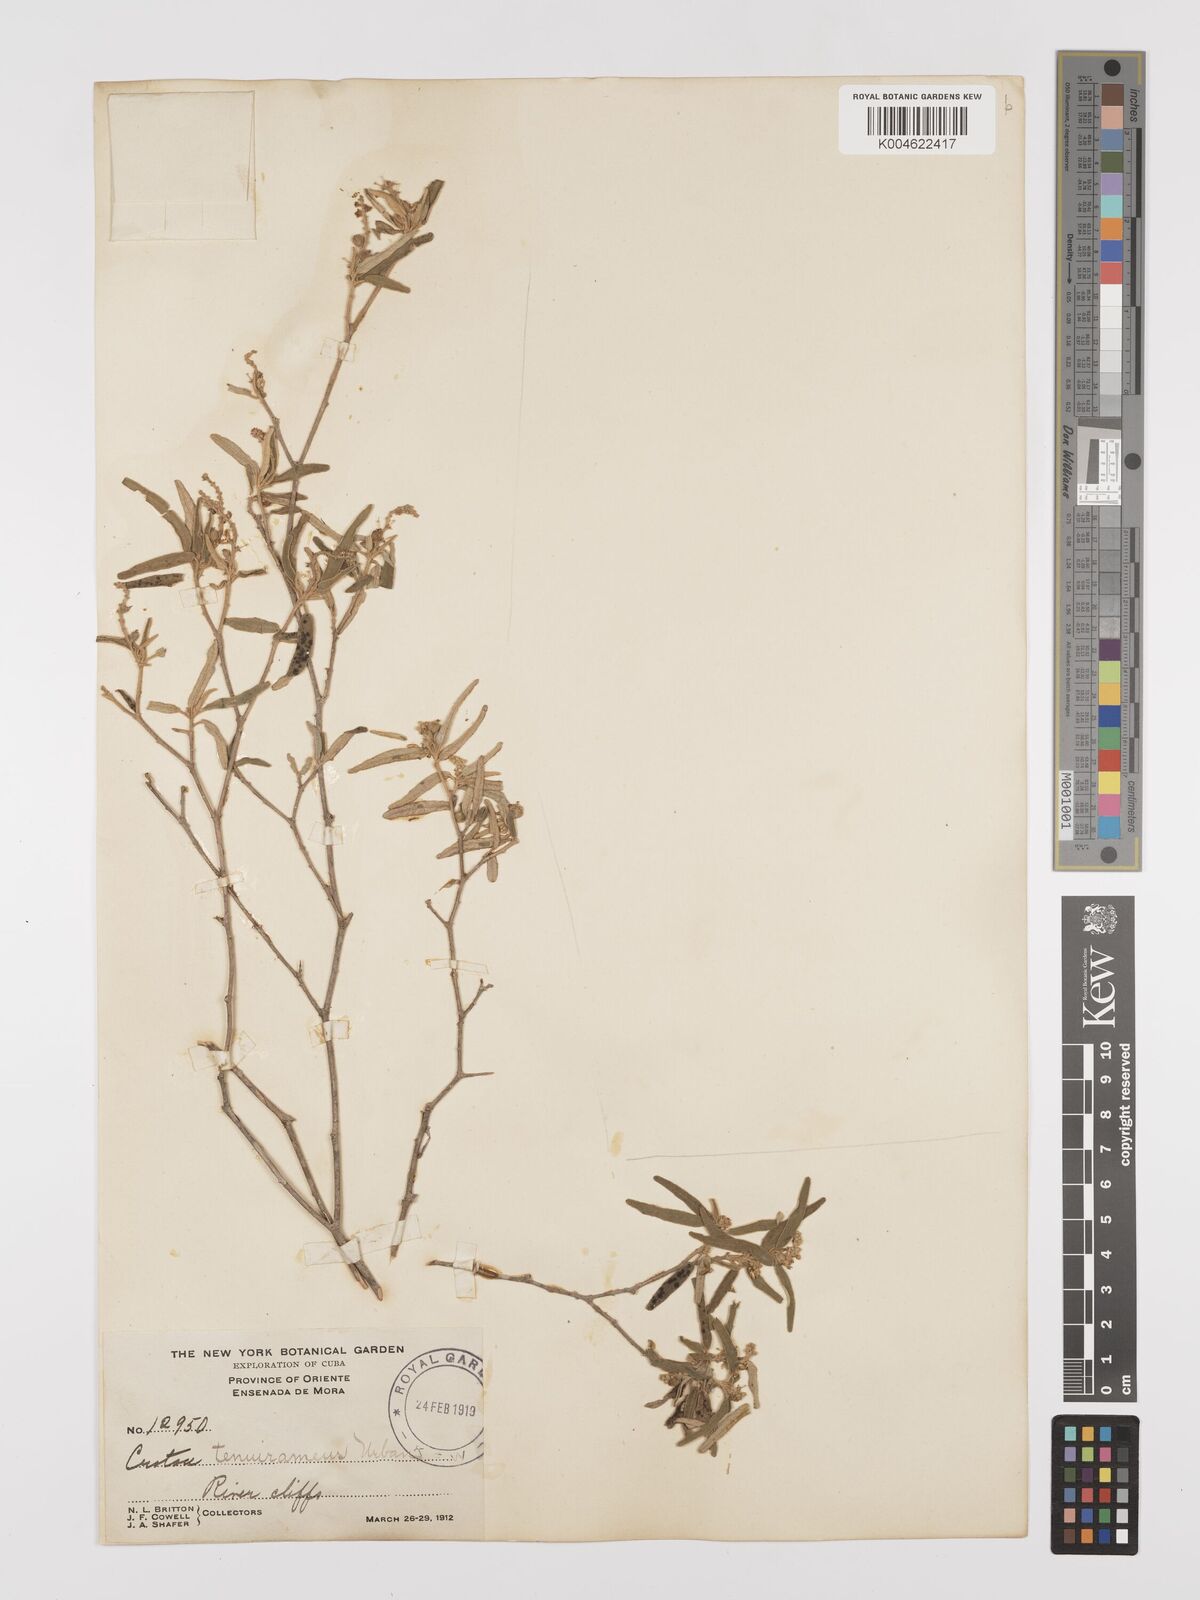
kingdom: Plantae
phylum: Tracheophyta
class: Magnoliopsida
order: Malpighiales
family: Euphorbiaceae
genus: Croton
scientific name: Croton stenophyllus
